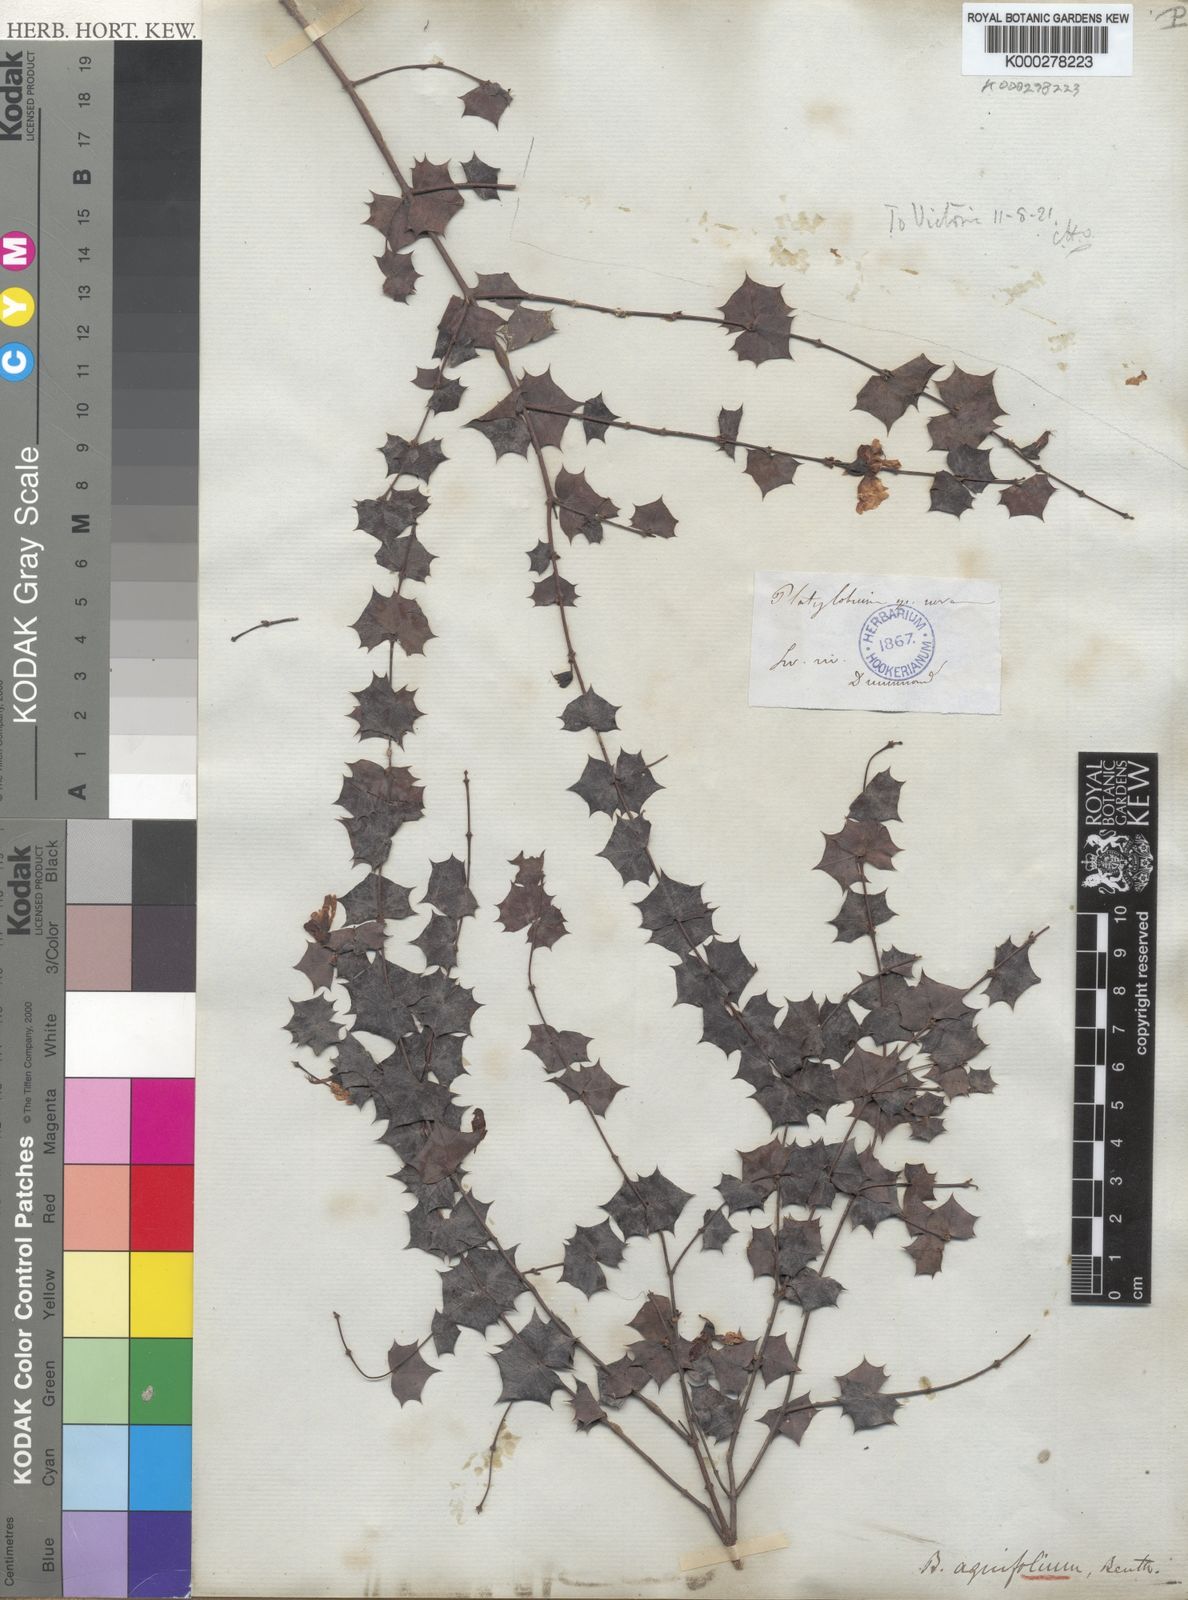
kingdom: Plantae
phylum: Tracheophyta
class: Magnoliopsida
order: Fabales
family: Fabaceae
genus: Bossiaea
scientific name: Bossiaea aquifolium
